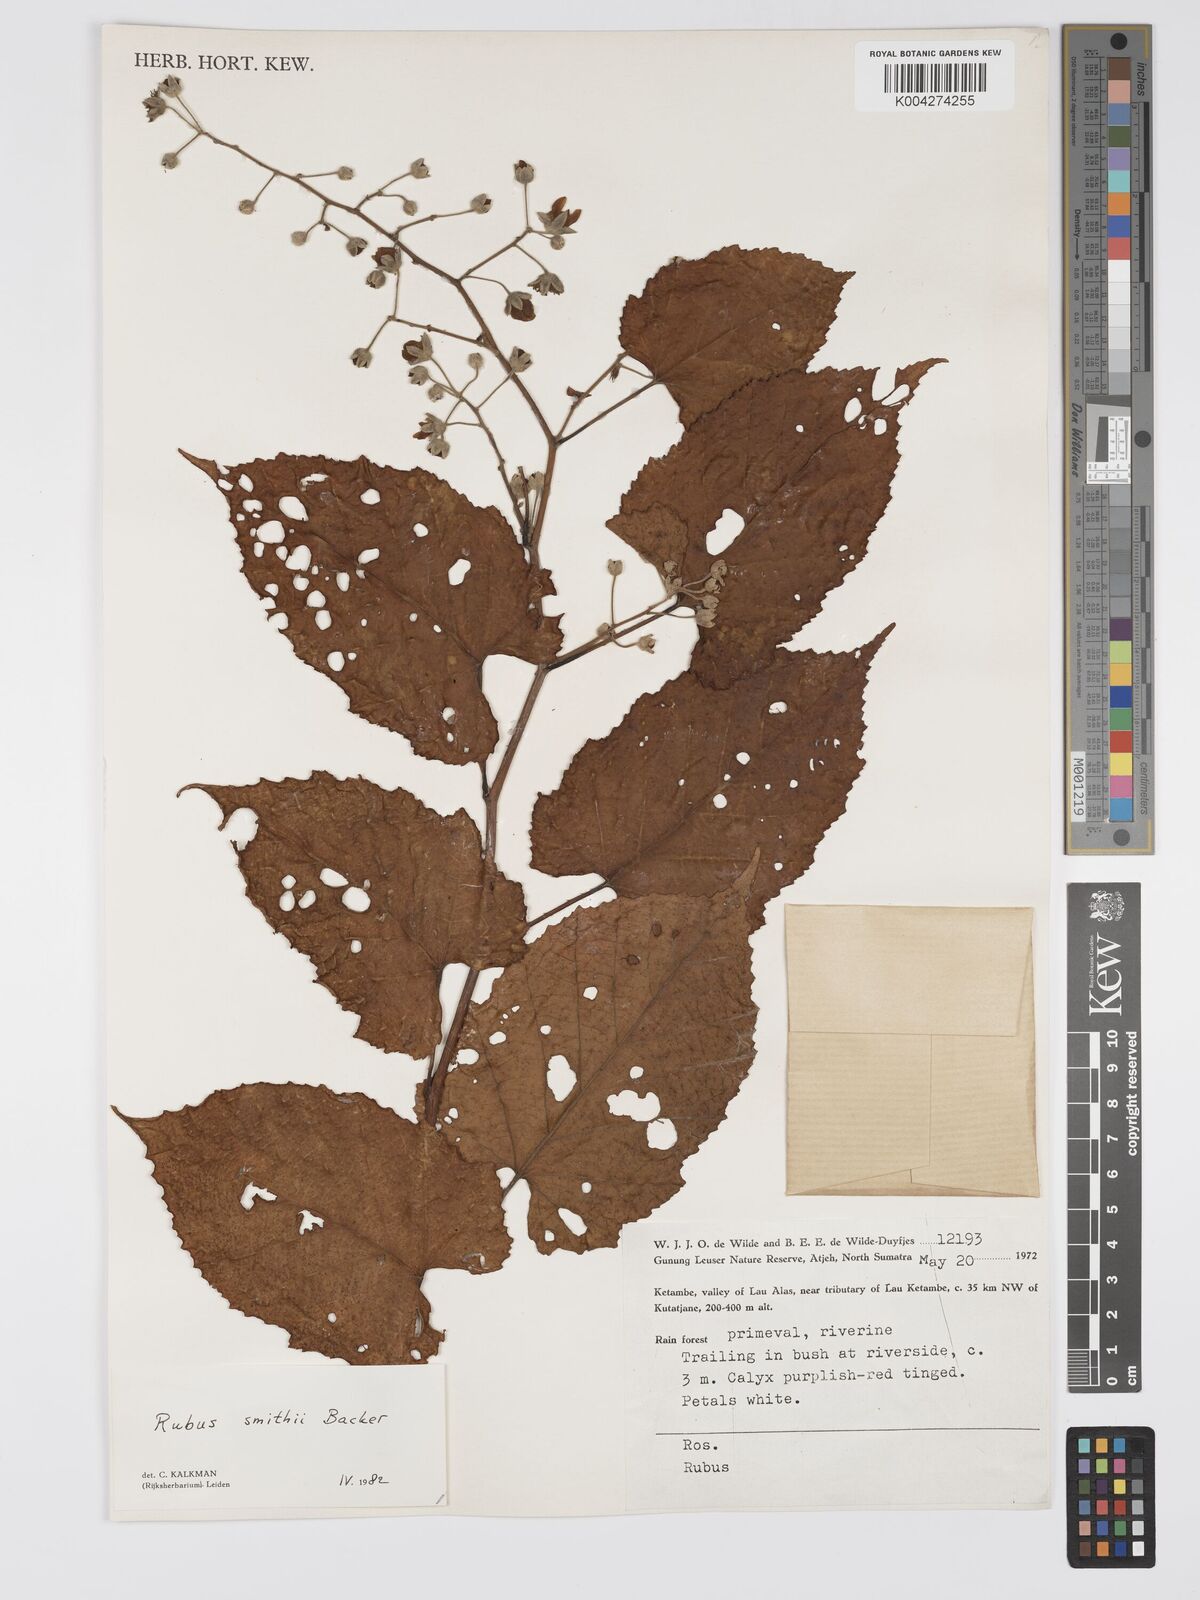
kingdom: Plantae
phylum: Tracheophyta
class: Magnoliopsida
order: Rosales
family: Rosaceae
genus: Rubus
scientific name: Rubus
